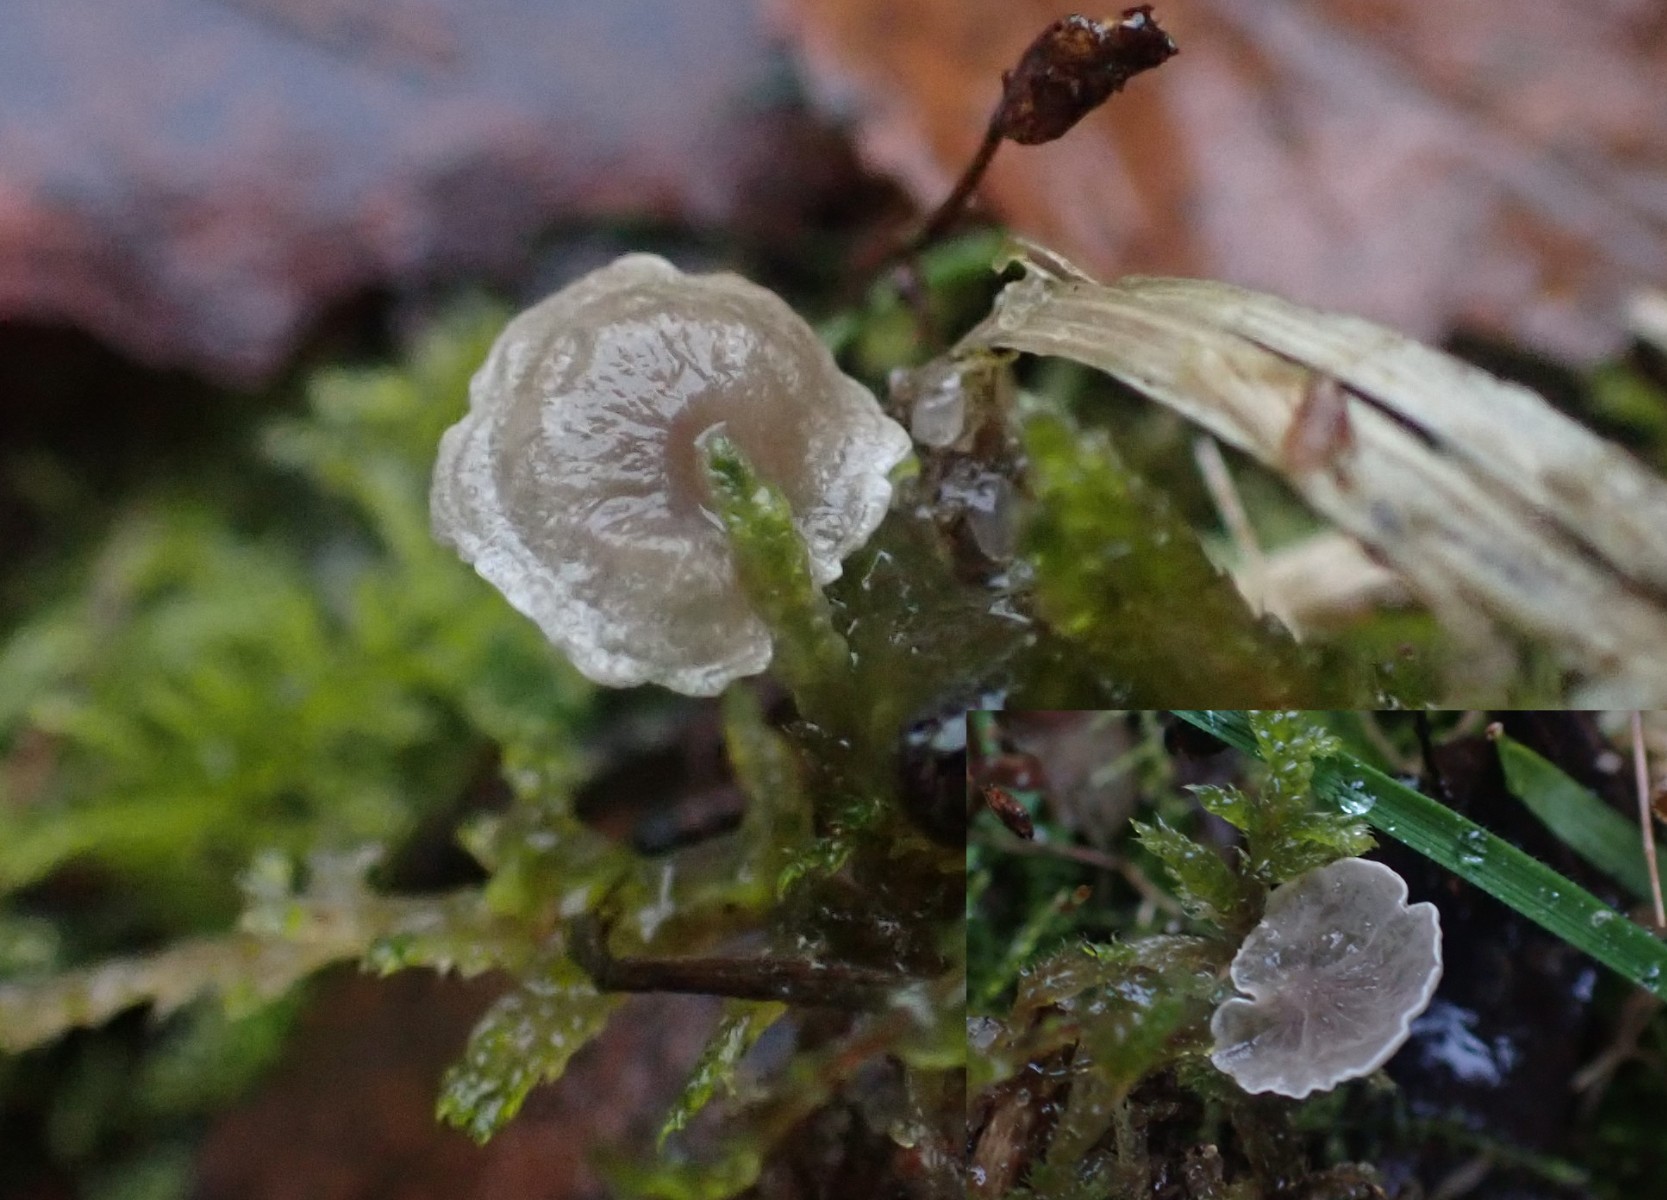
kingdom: Fungi
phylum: Basidiomycota
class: Agaricomycetes
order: Agaricales
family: Hygrophoraceae
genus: Arrhenia
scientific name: Arrhenia retiruga
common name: lille fontænehat
